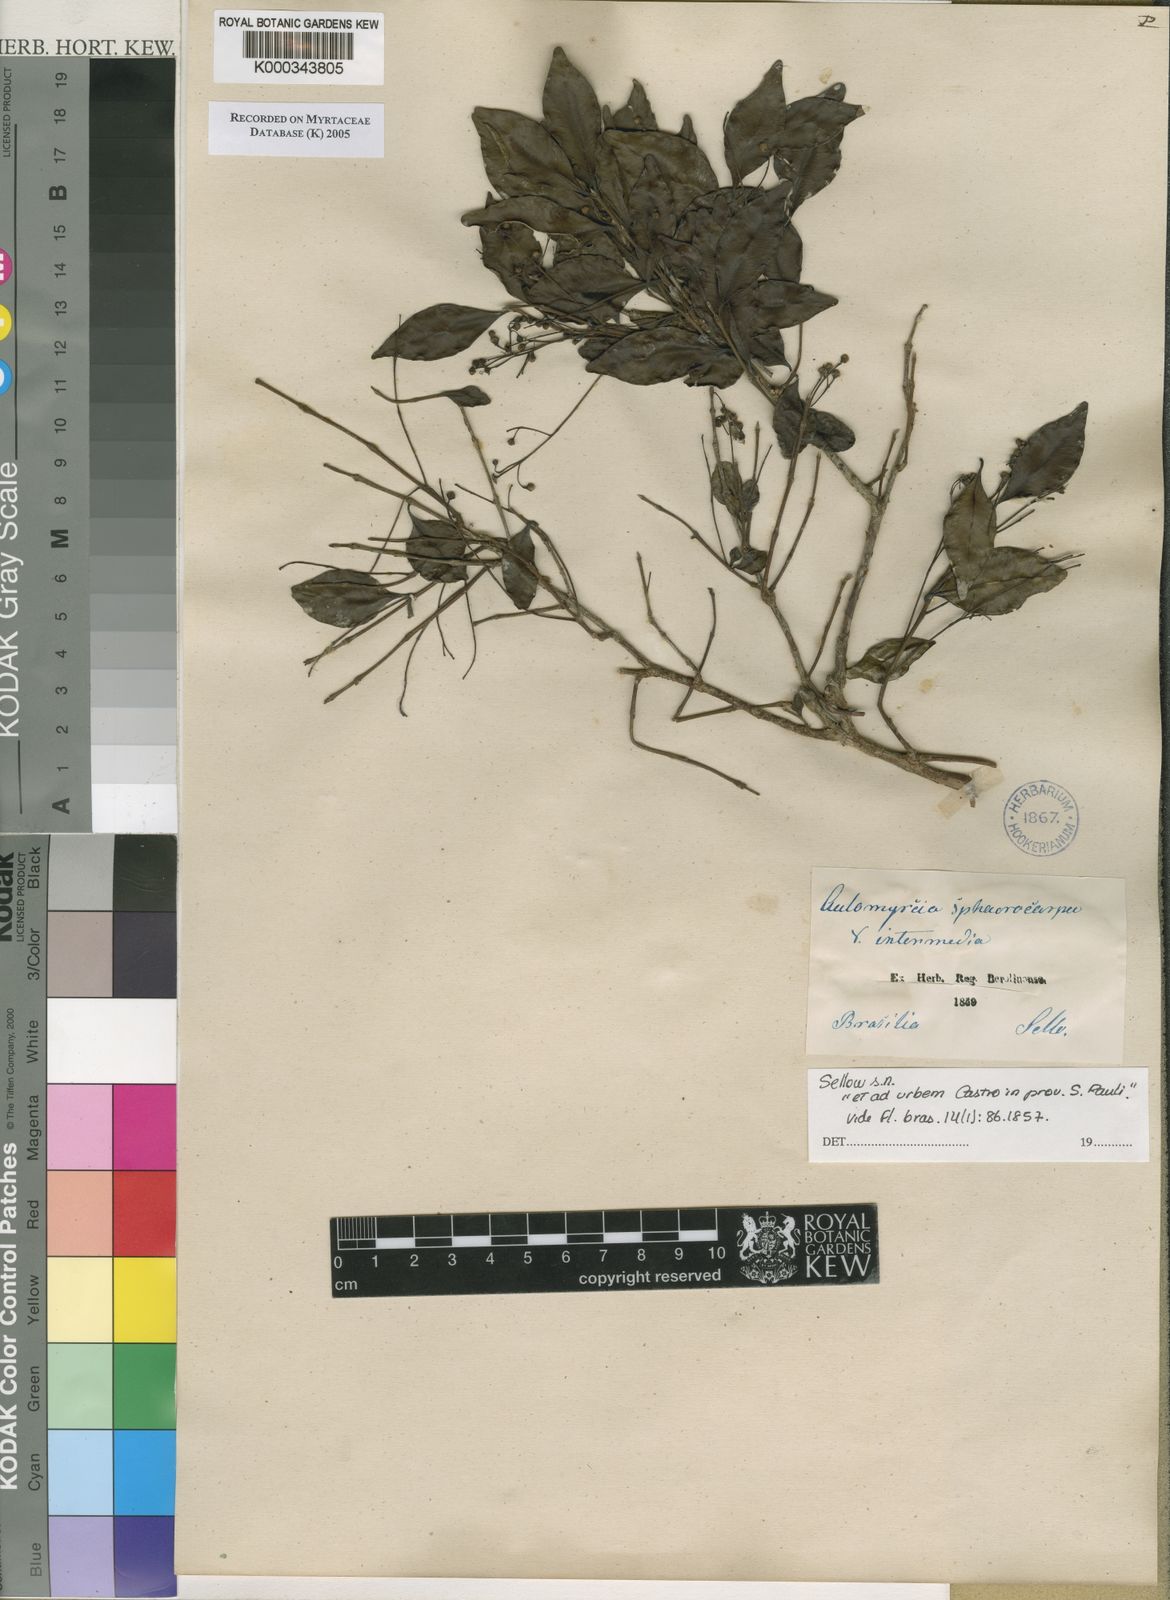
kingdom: Plantae
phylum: Tracheophyta
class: Magnoliopsida
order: Myrtales
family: Myrtaceae
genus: Myrcia
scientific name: Myrcia multiflora
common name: Pedra hume
